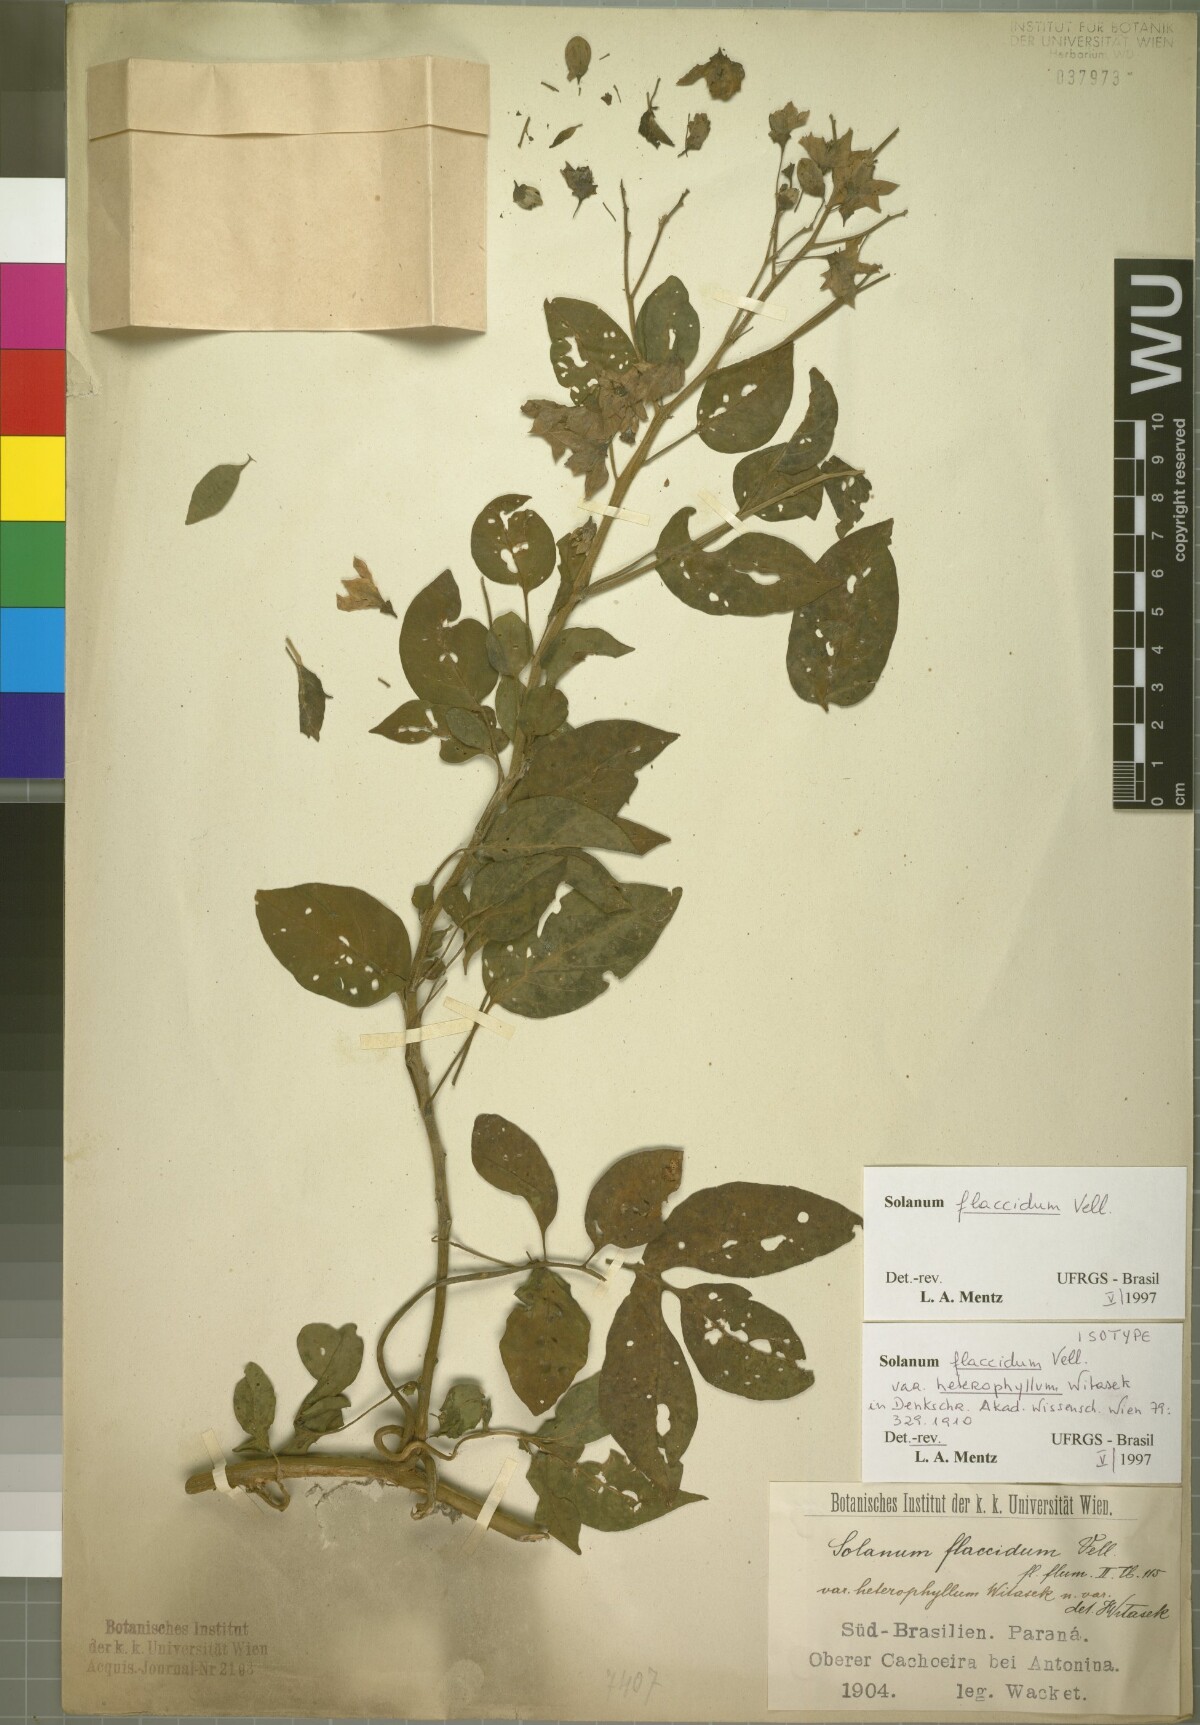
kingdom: Plantae
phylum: Tracheophyta
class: Magnoliopsida
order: Solanales
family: Solanaceae
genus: Solanum
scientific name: Solanum flaccidum
